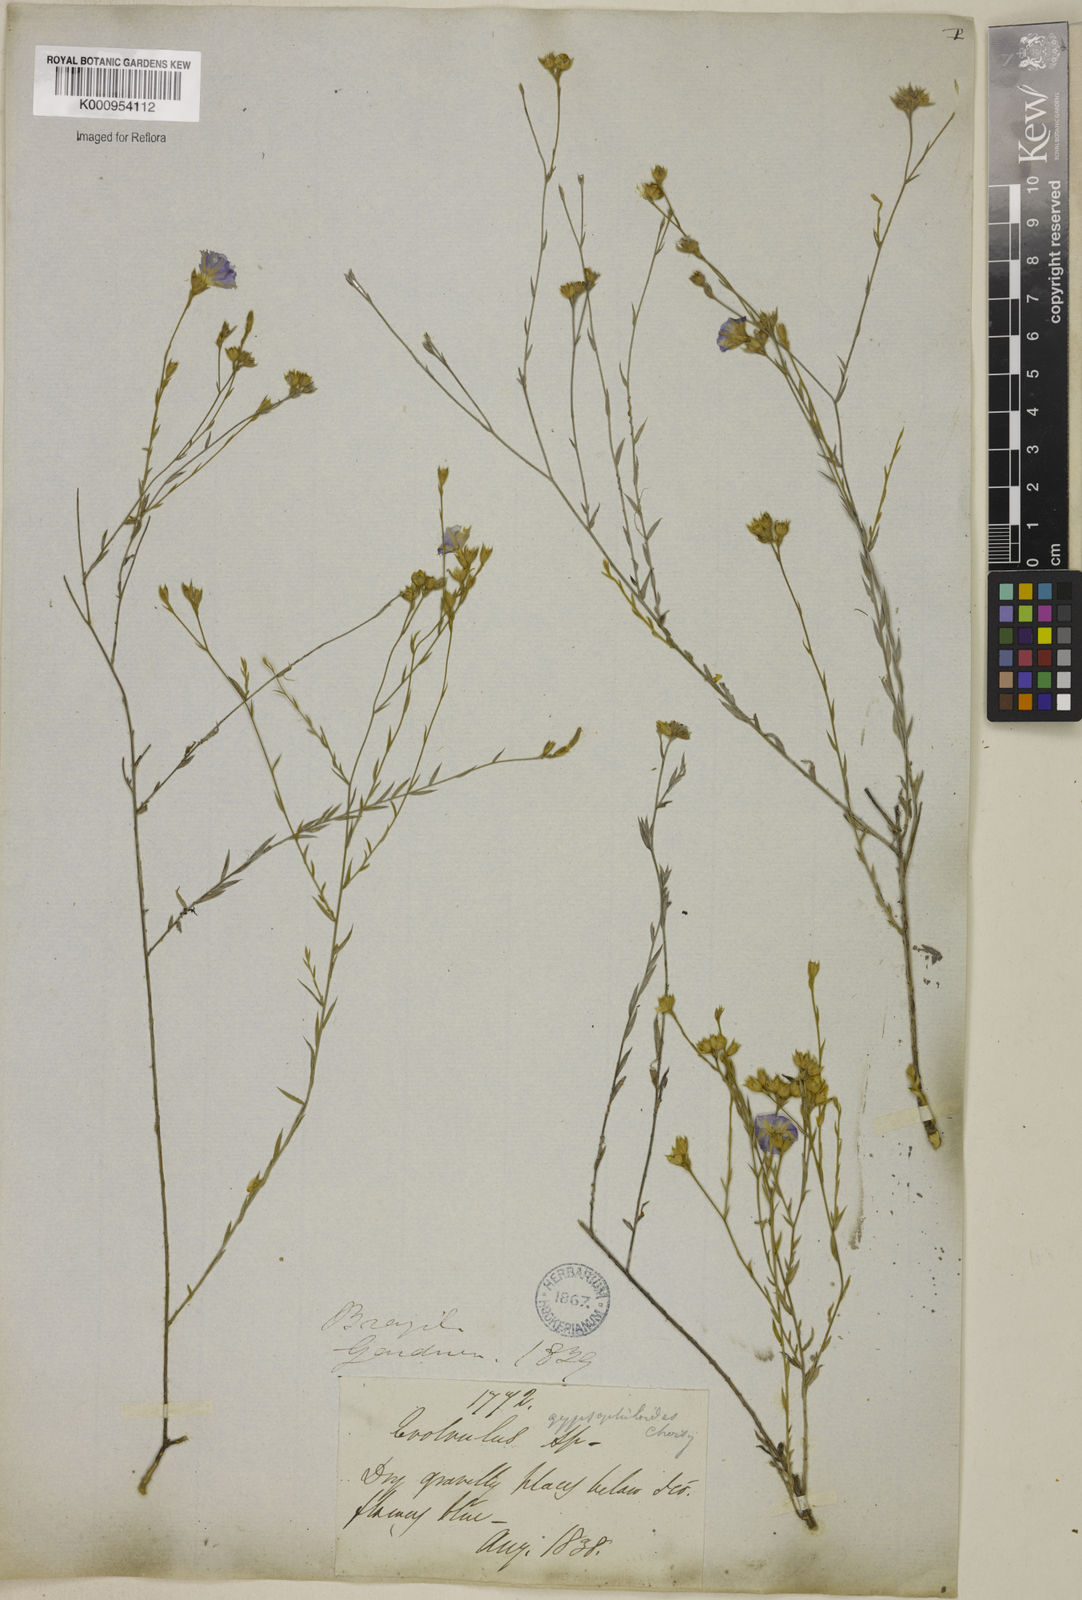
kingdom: Plantae
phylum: Tracheophyta
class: Magnoliopsida
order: Solanales
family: Convolvulaceae
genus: Evolvulus
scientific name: Evolvulus gypsophiloides
